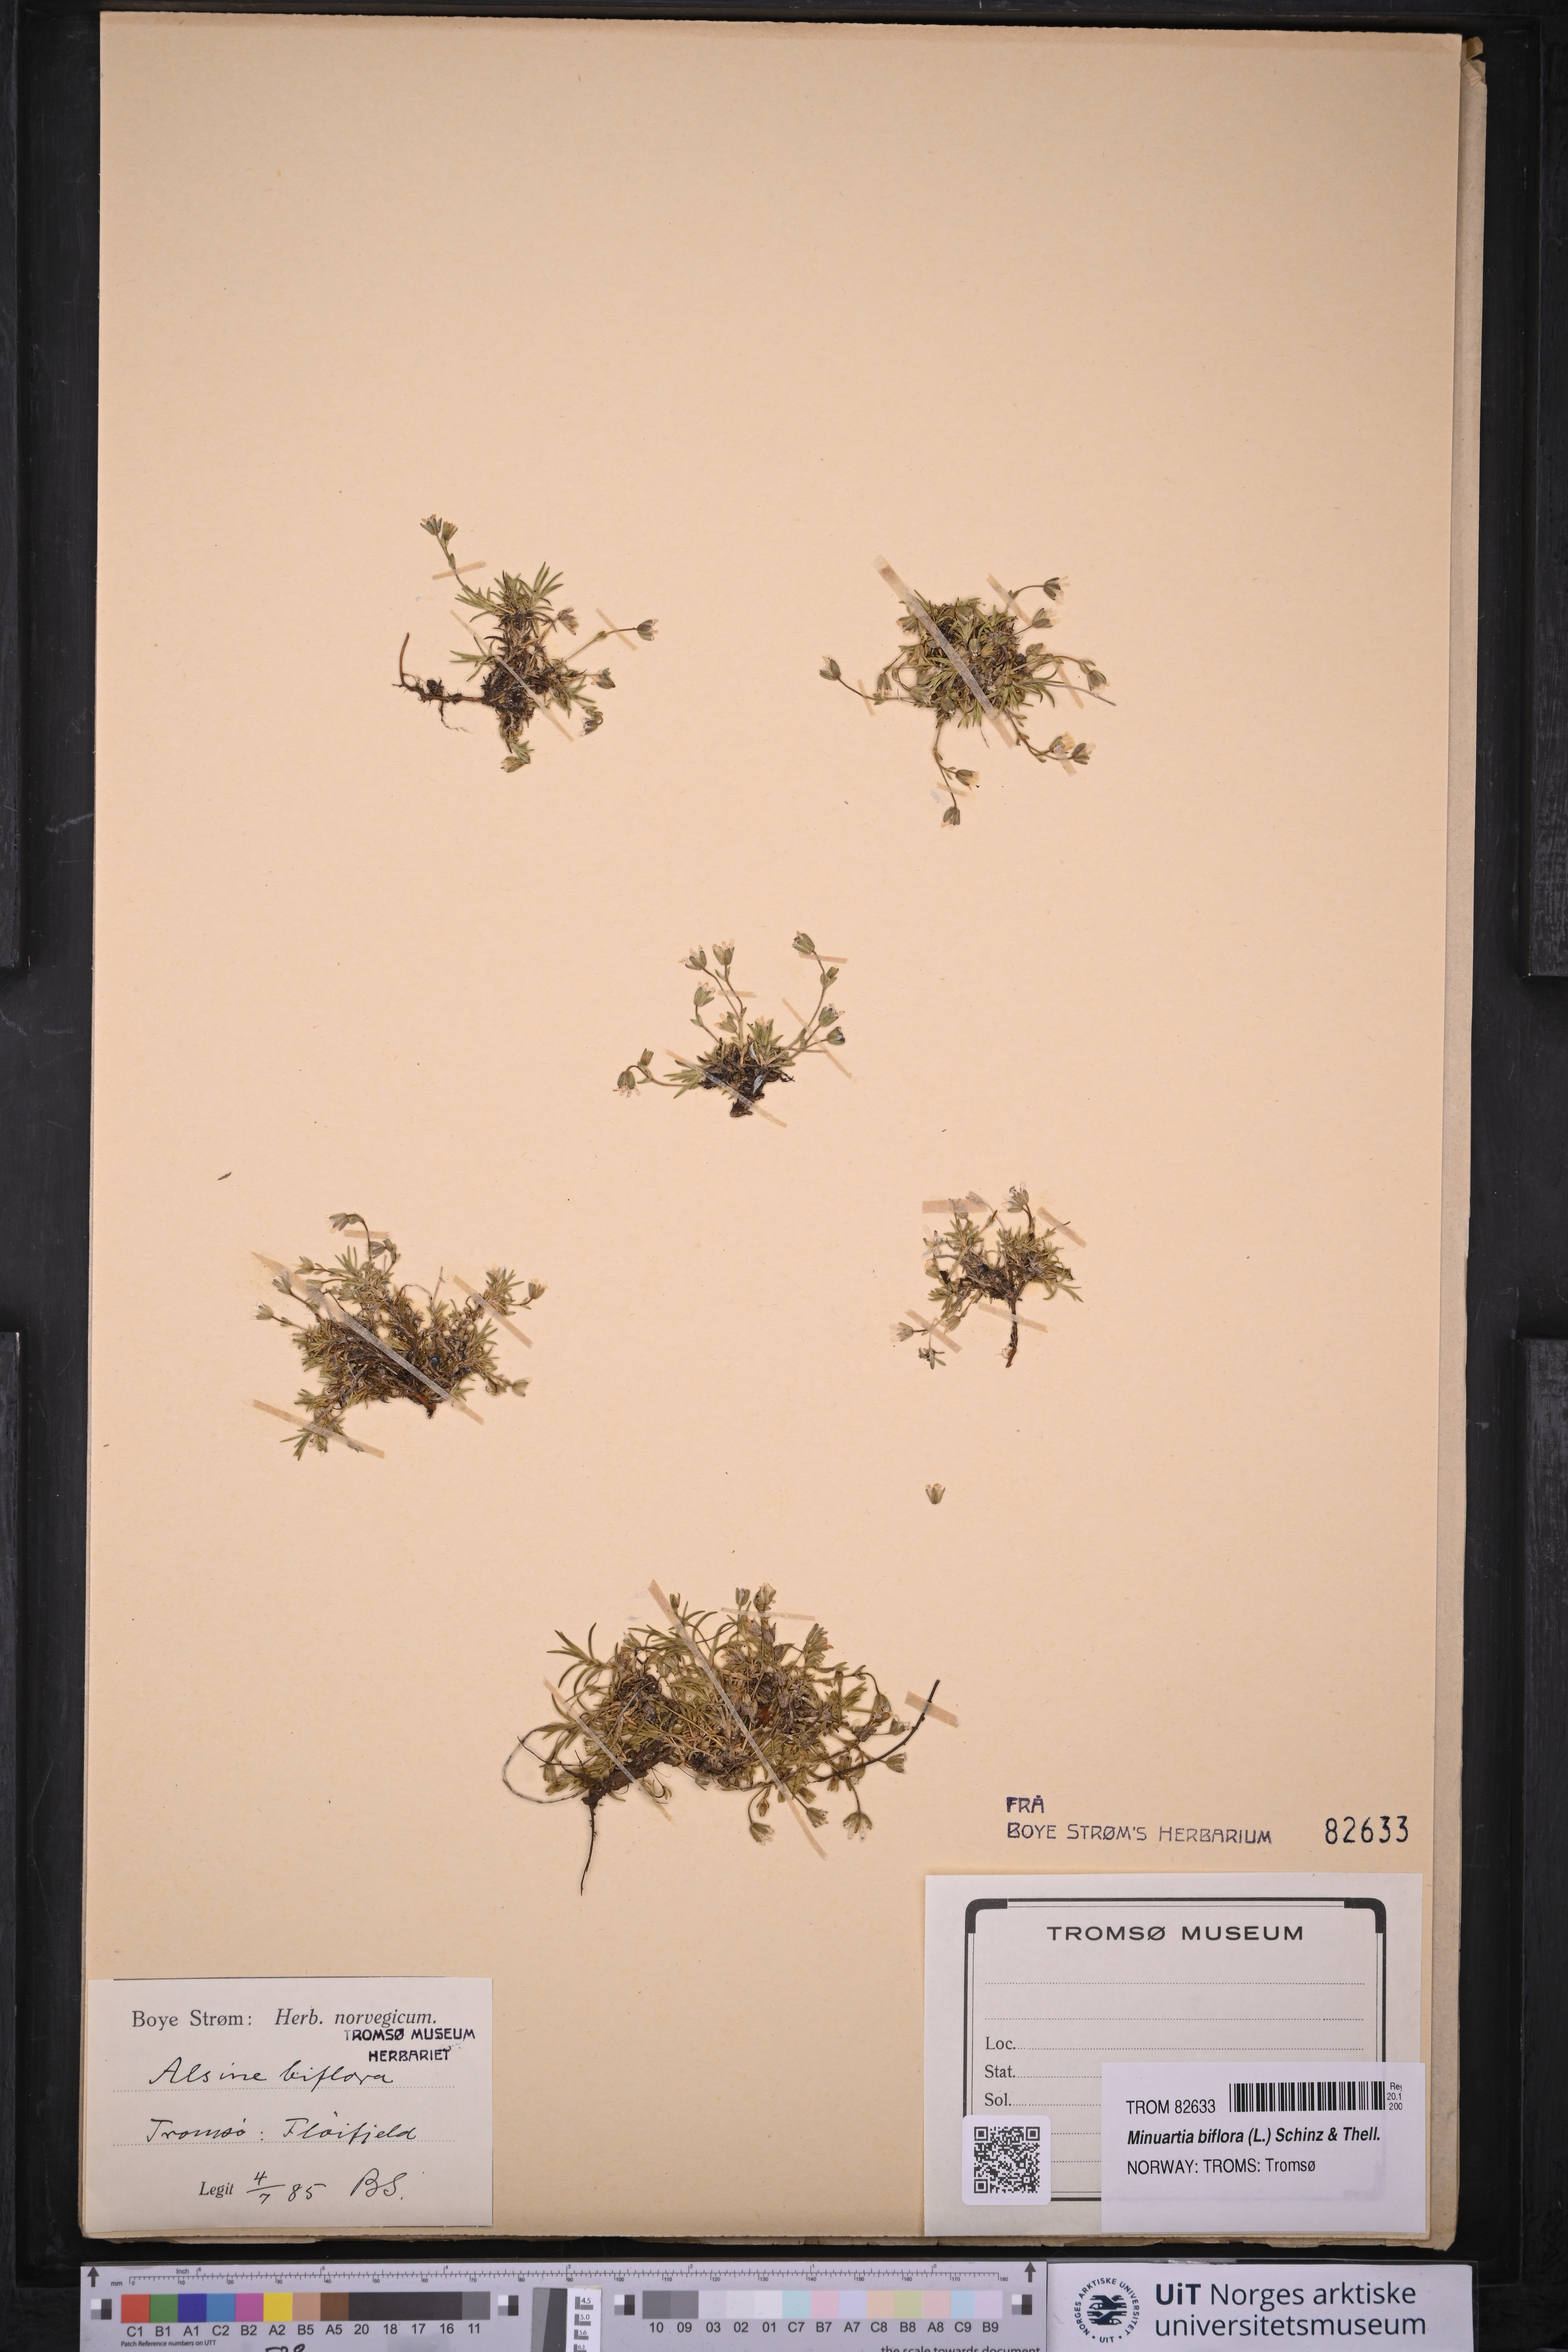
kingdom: Plantae
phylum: Tracheophyta
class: Magnoliopsida
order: Caryophyllales
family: Caryophyllaceae
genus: Cherleria
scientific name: Cherleria biflora
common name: Mountain sandwort
